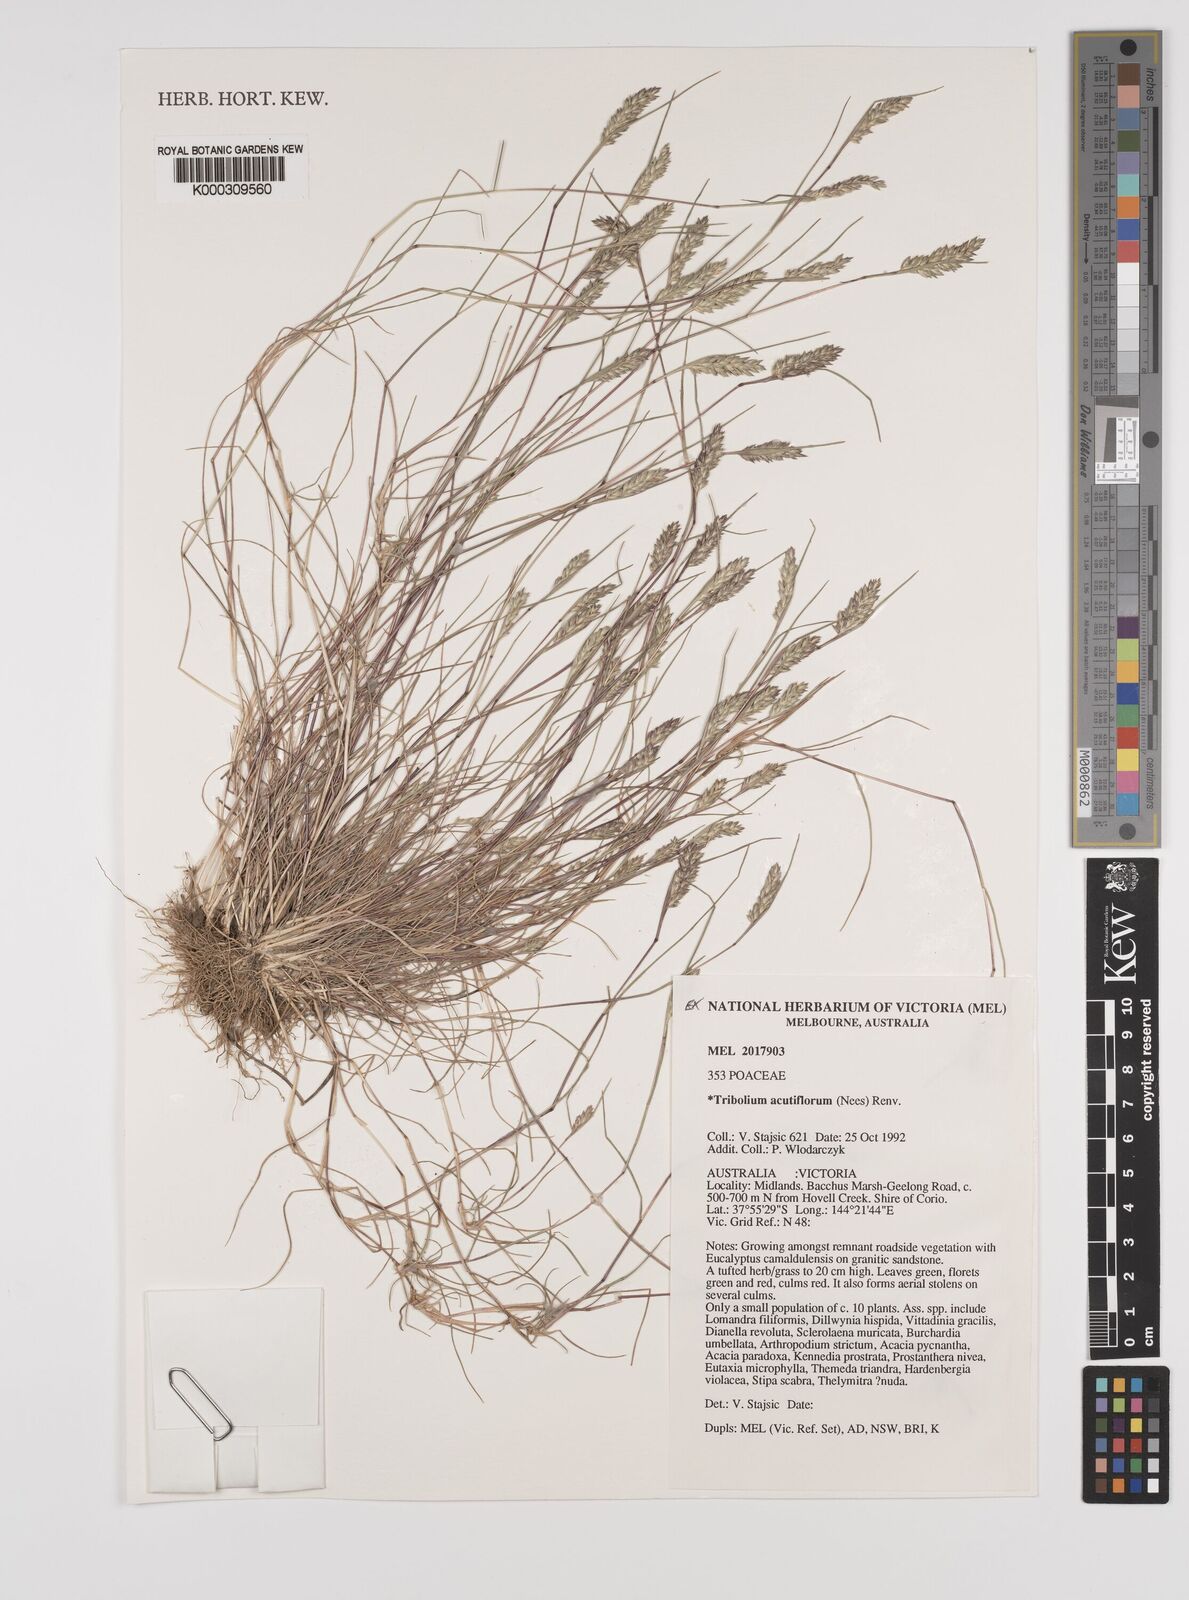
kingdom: Plantae
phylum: Tracheophyta
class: Liliopsida
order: Poales
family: Poaceae
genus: Tribolium
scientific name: Tribolium acutiflorum
